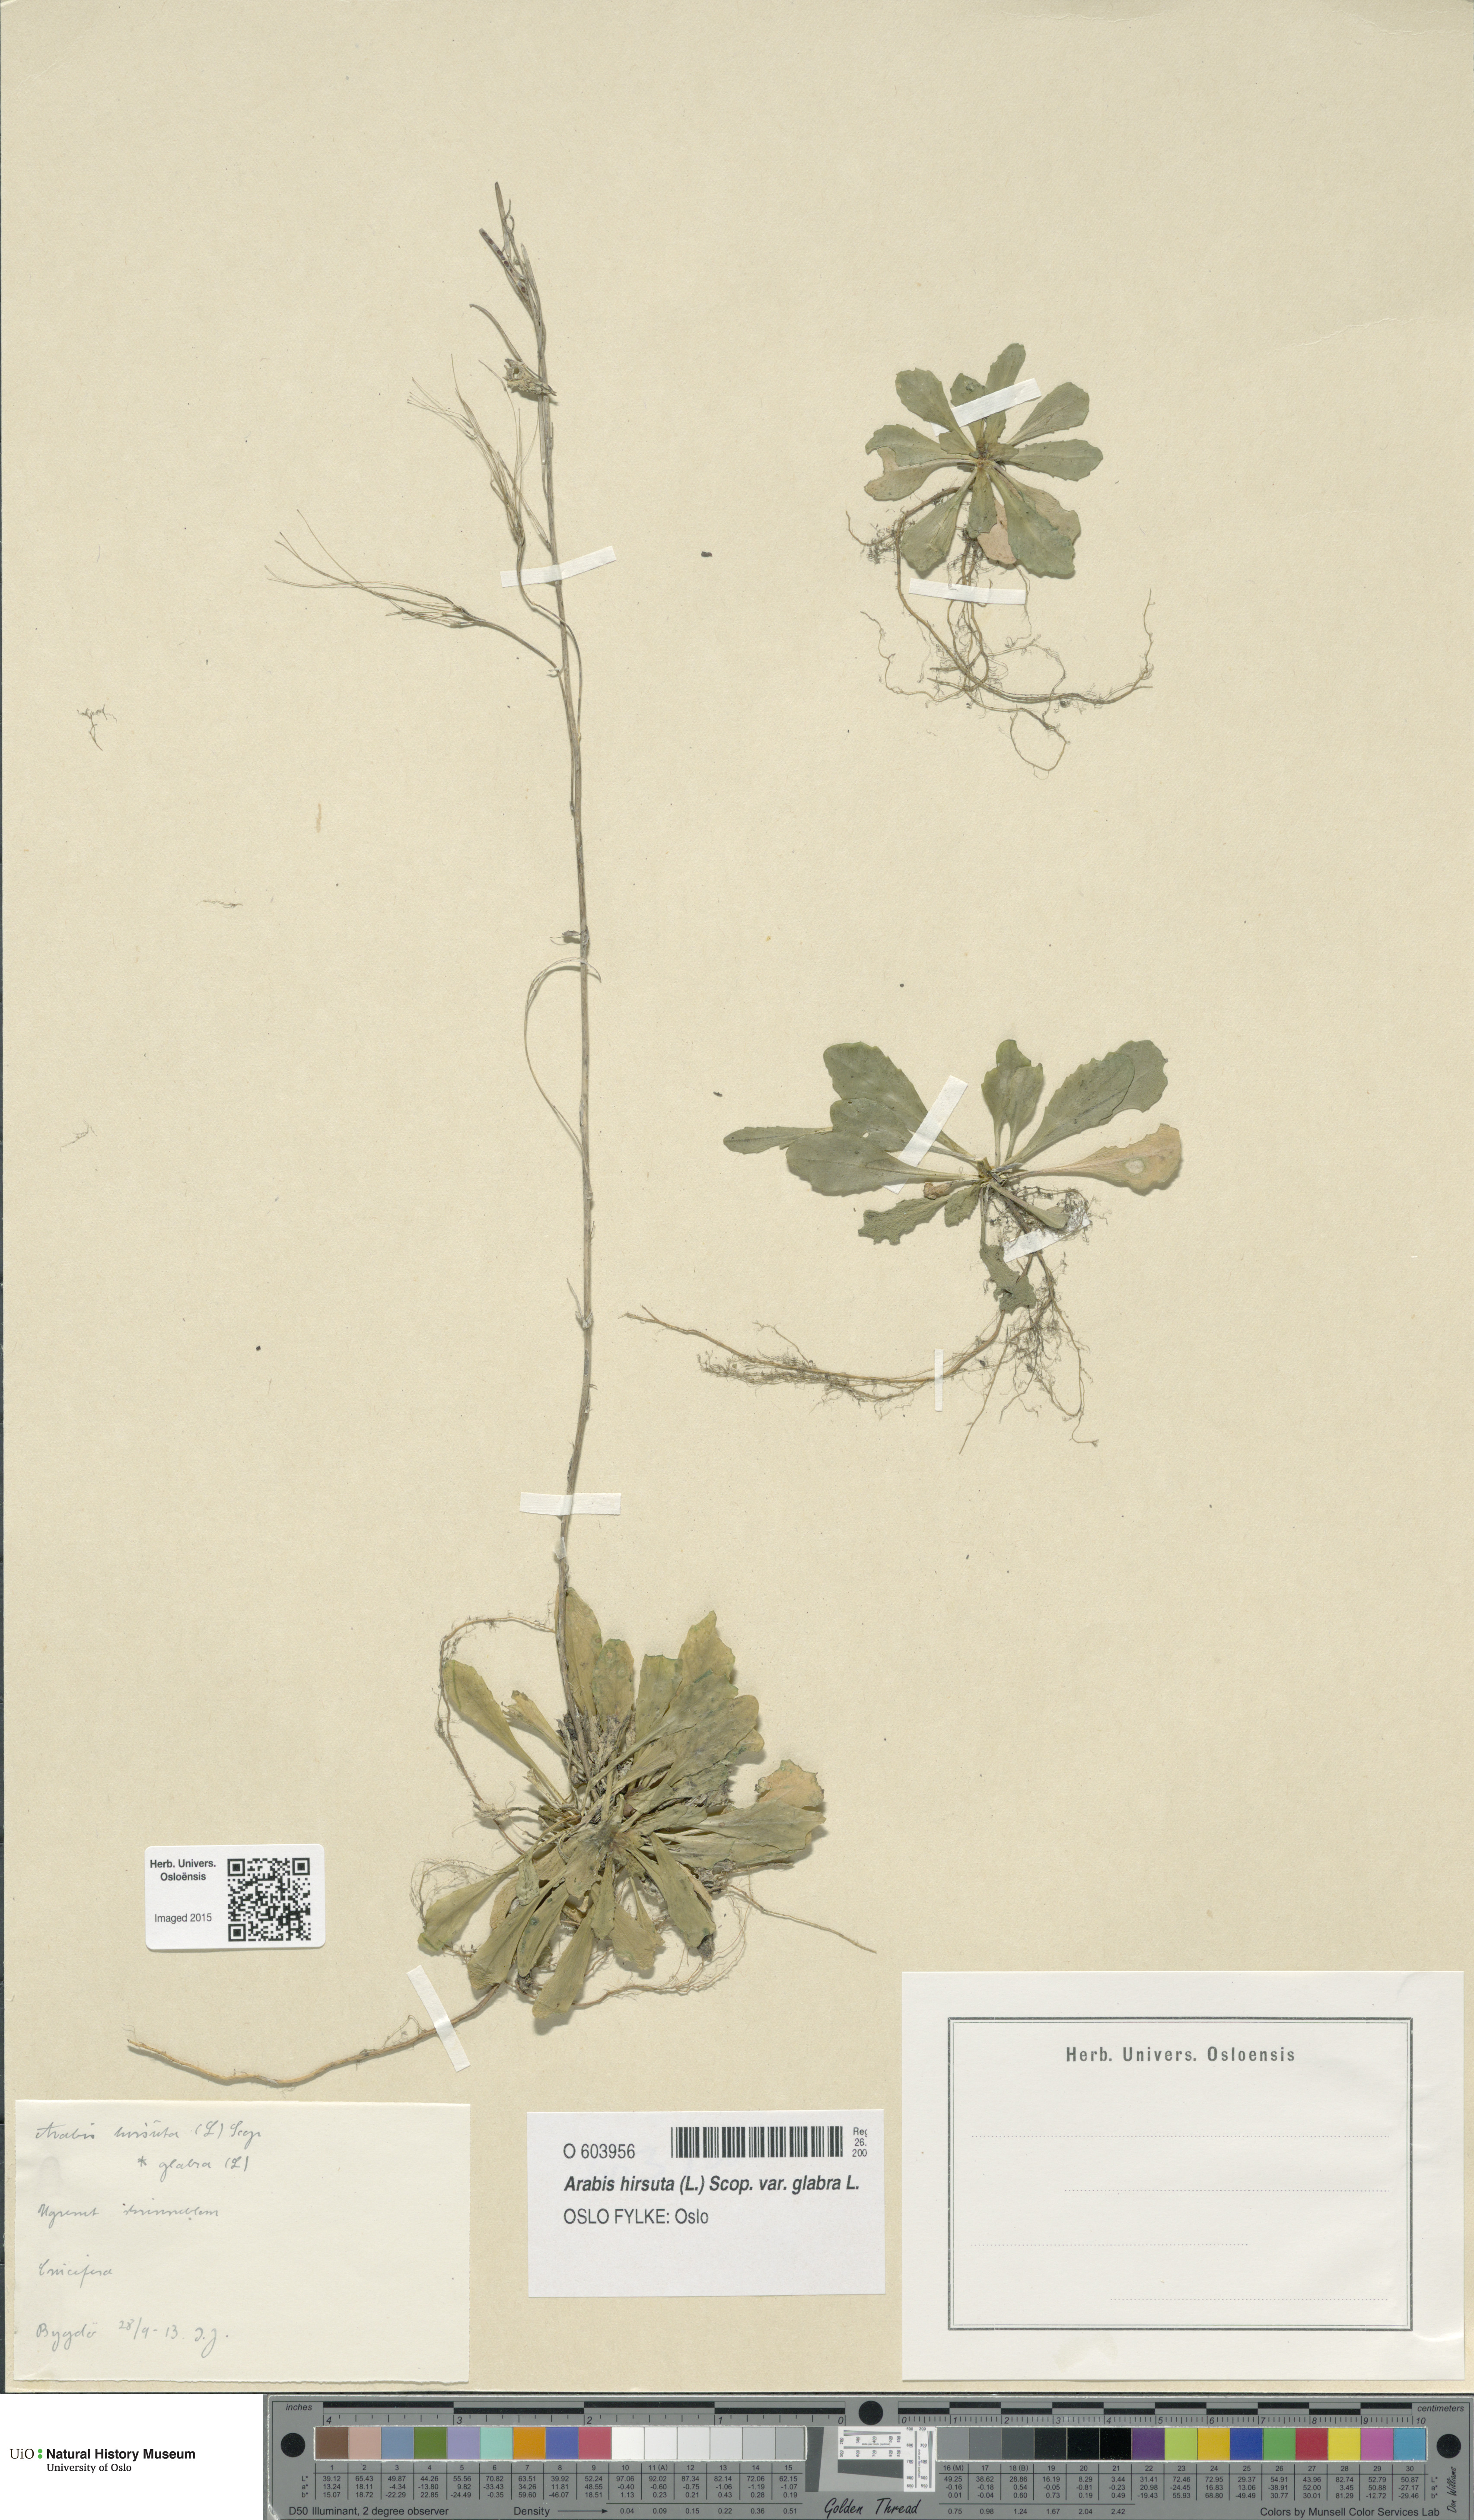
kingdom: Plantae
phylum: Tracheophyta
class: Magnoliopsida
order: Brassicales
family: Brassicaceae
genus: Arabis
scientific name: Arabis hirsuta
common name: Hairy rock-cress
